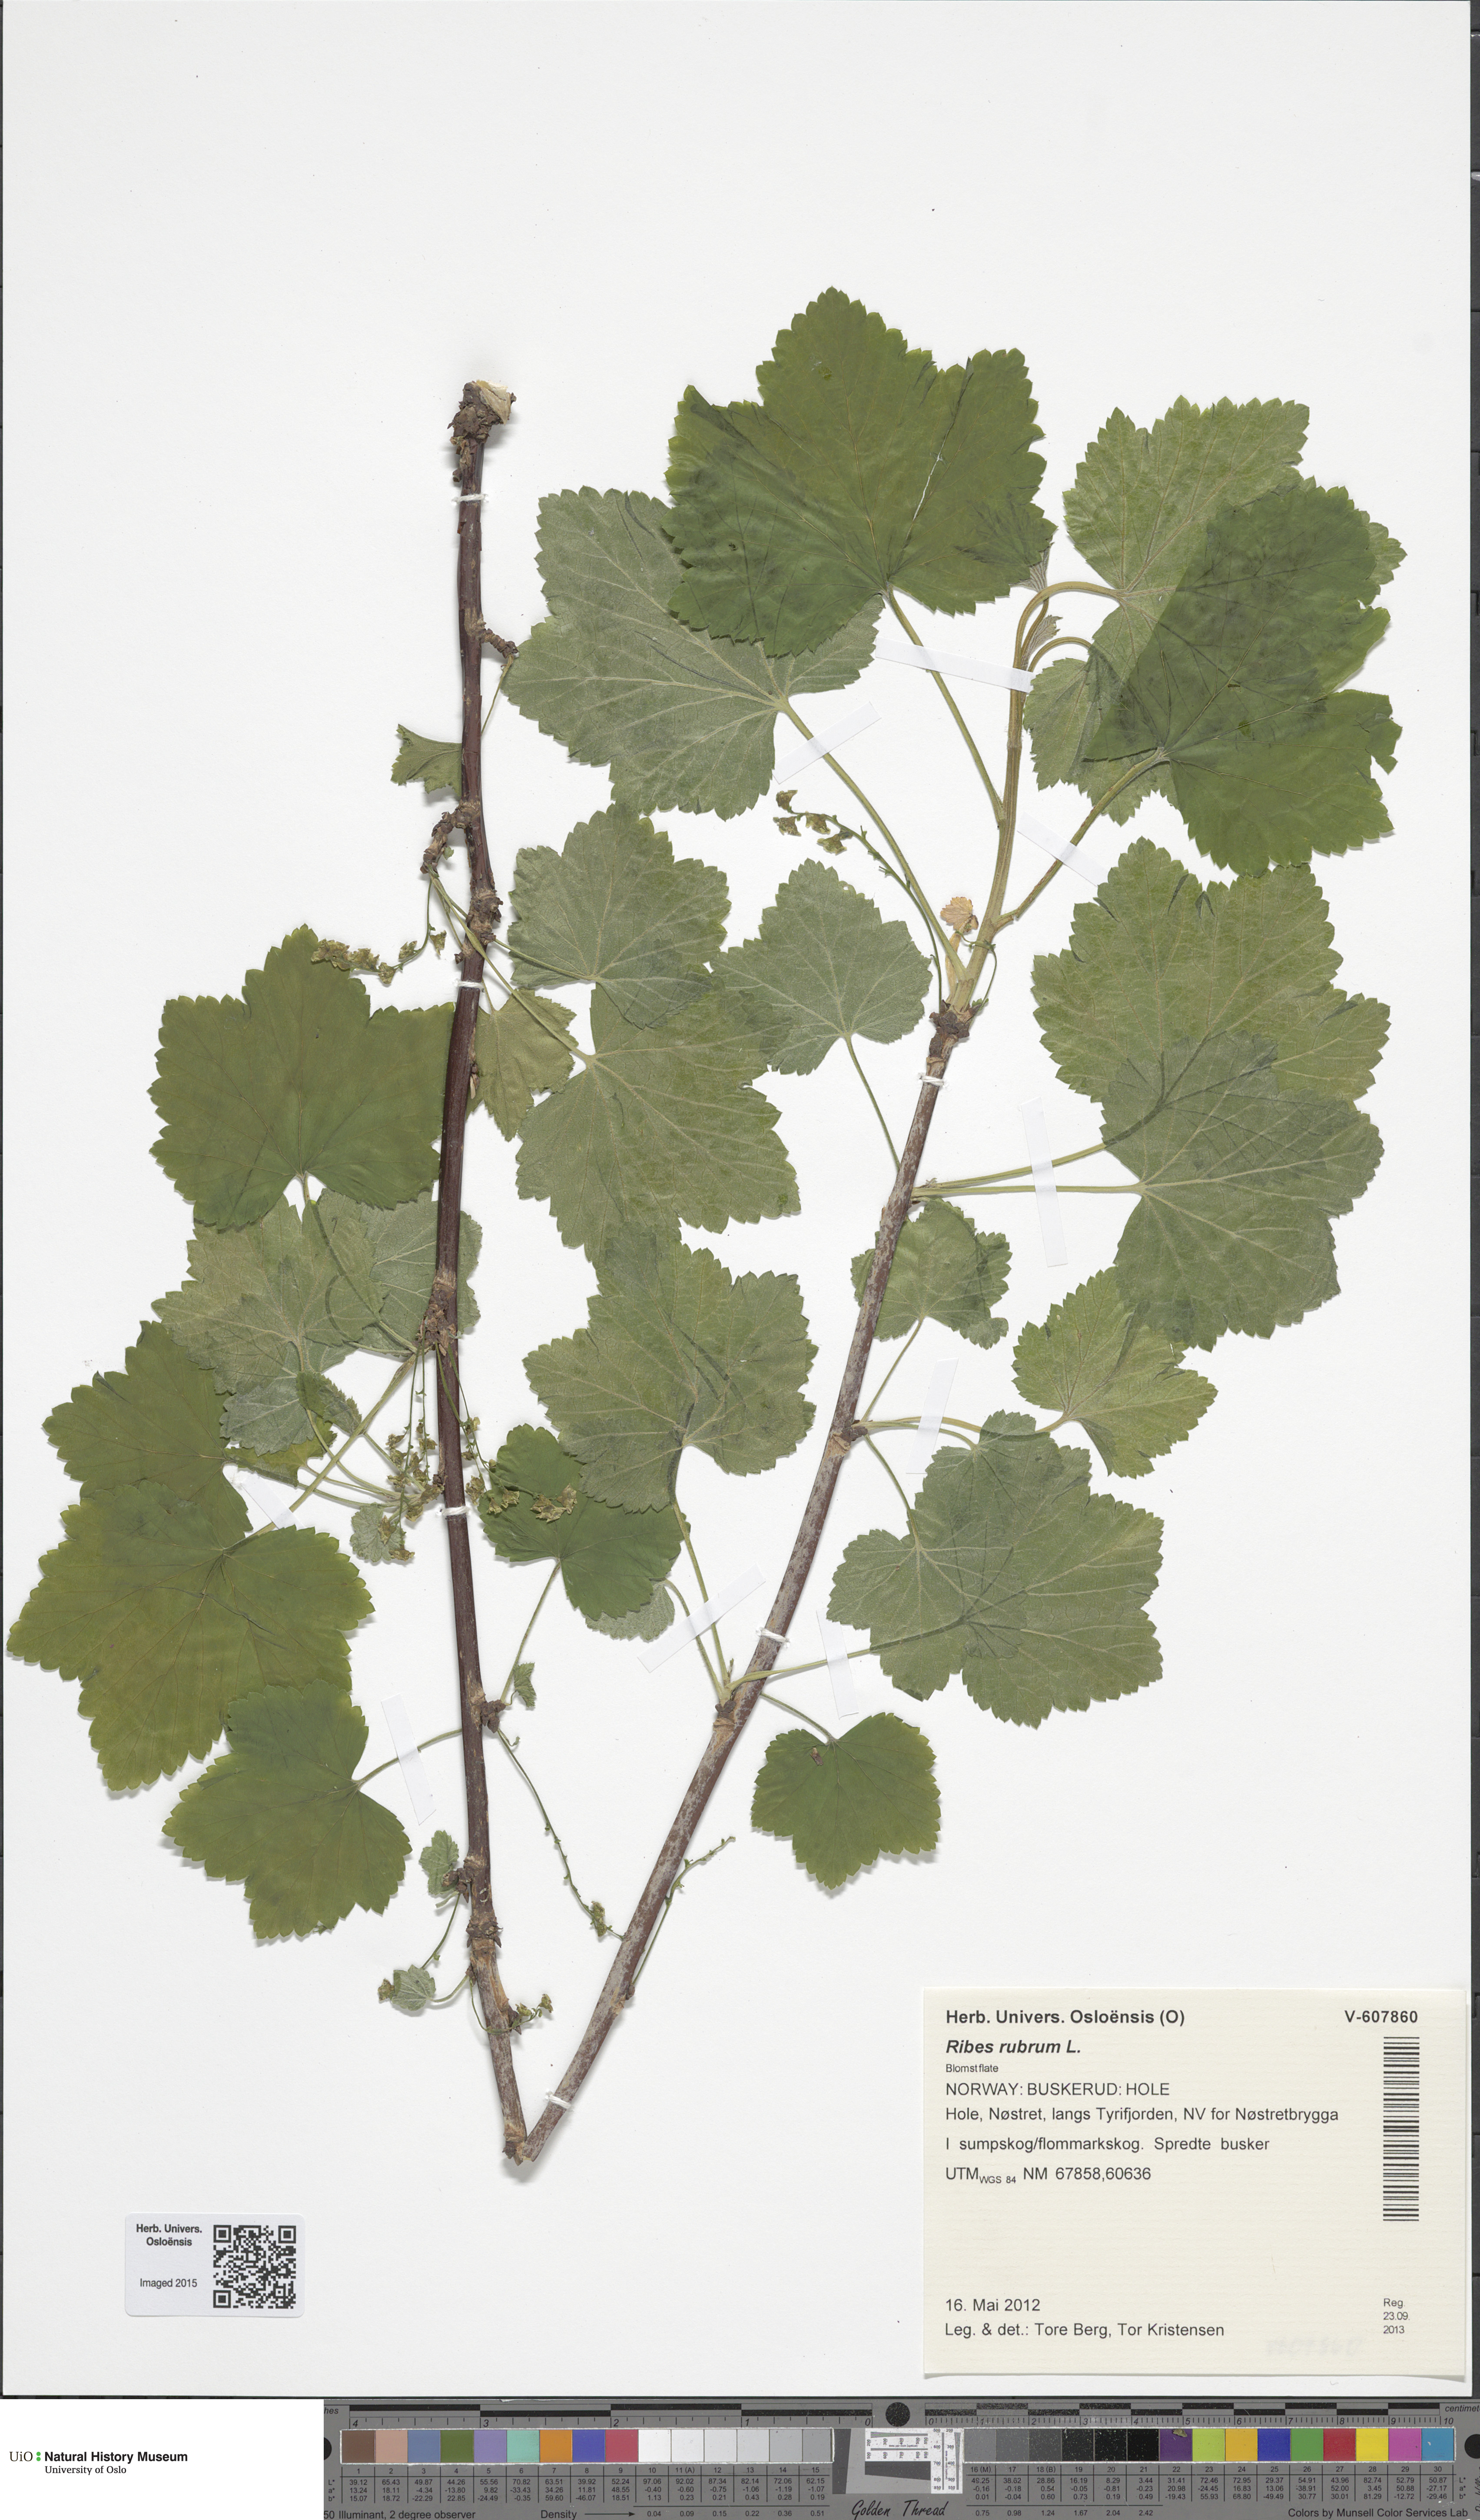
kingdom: Plantae
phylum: Tracheophyta
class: Magnoliopsida
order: Saxifragales
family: Grossulariaceae
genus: Ribes
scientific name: Ribes spicatum
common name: Downy currant
